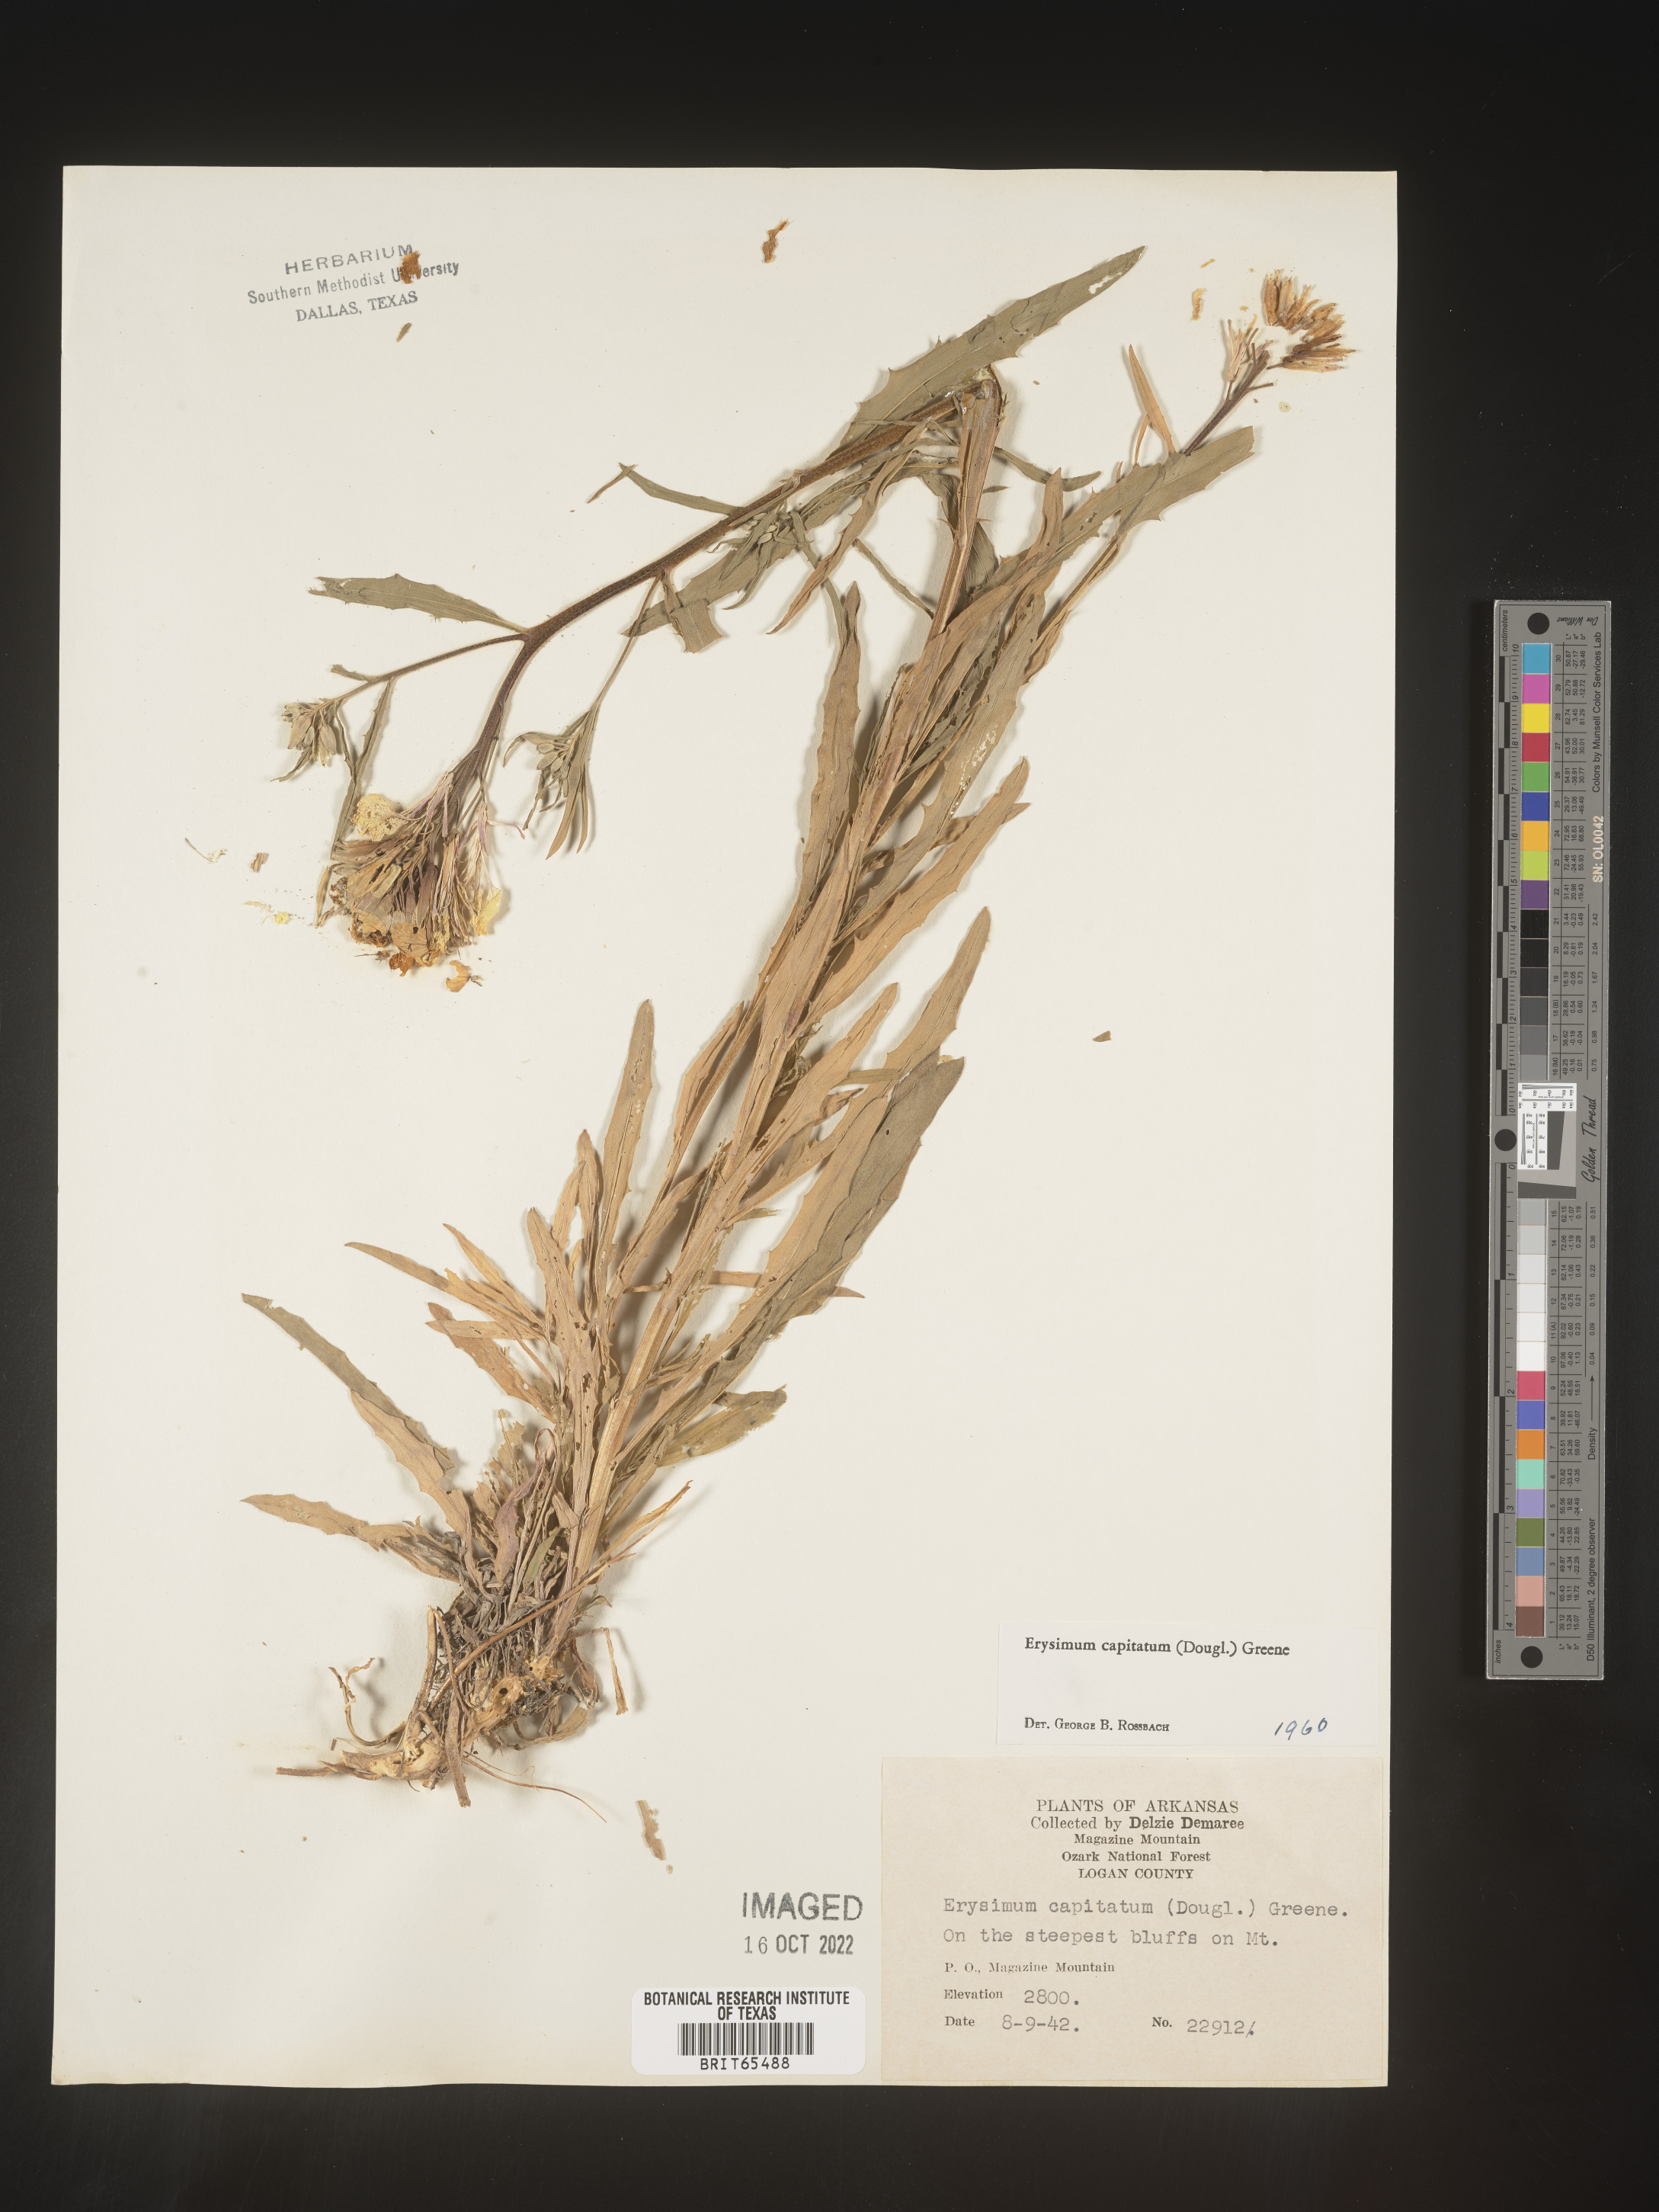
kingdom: Plantae
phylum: Tracheophyta
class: Magnoliopsida
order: Brassicales
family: Brassicaceae
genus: Erysimum
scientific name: Erysimum capitatum
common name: Western wallflower
